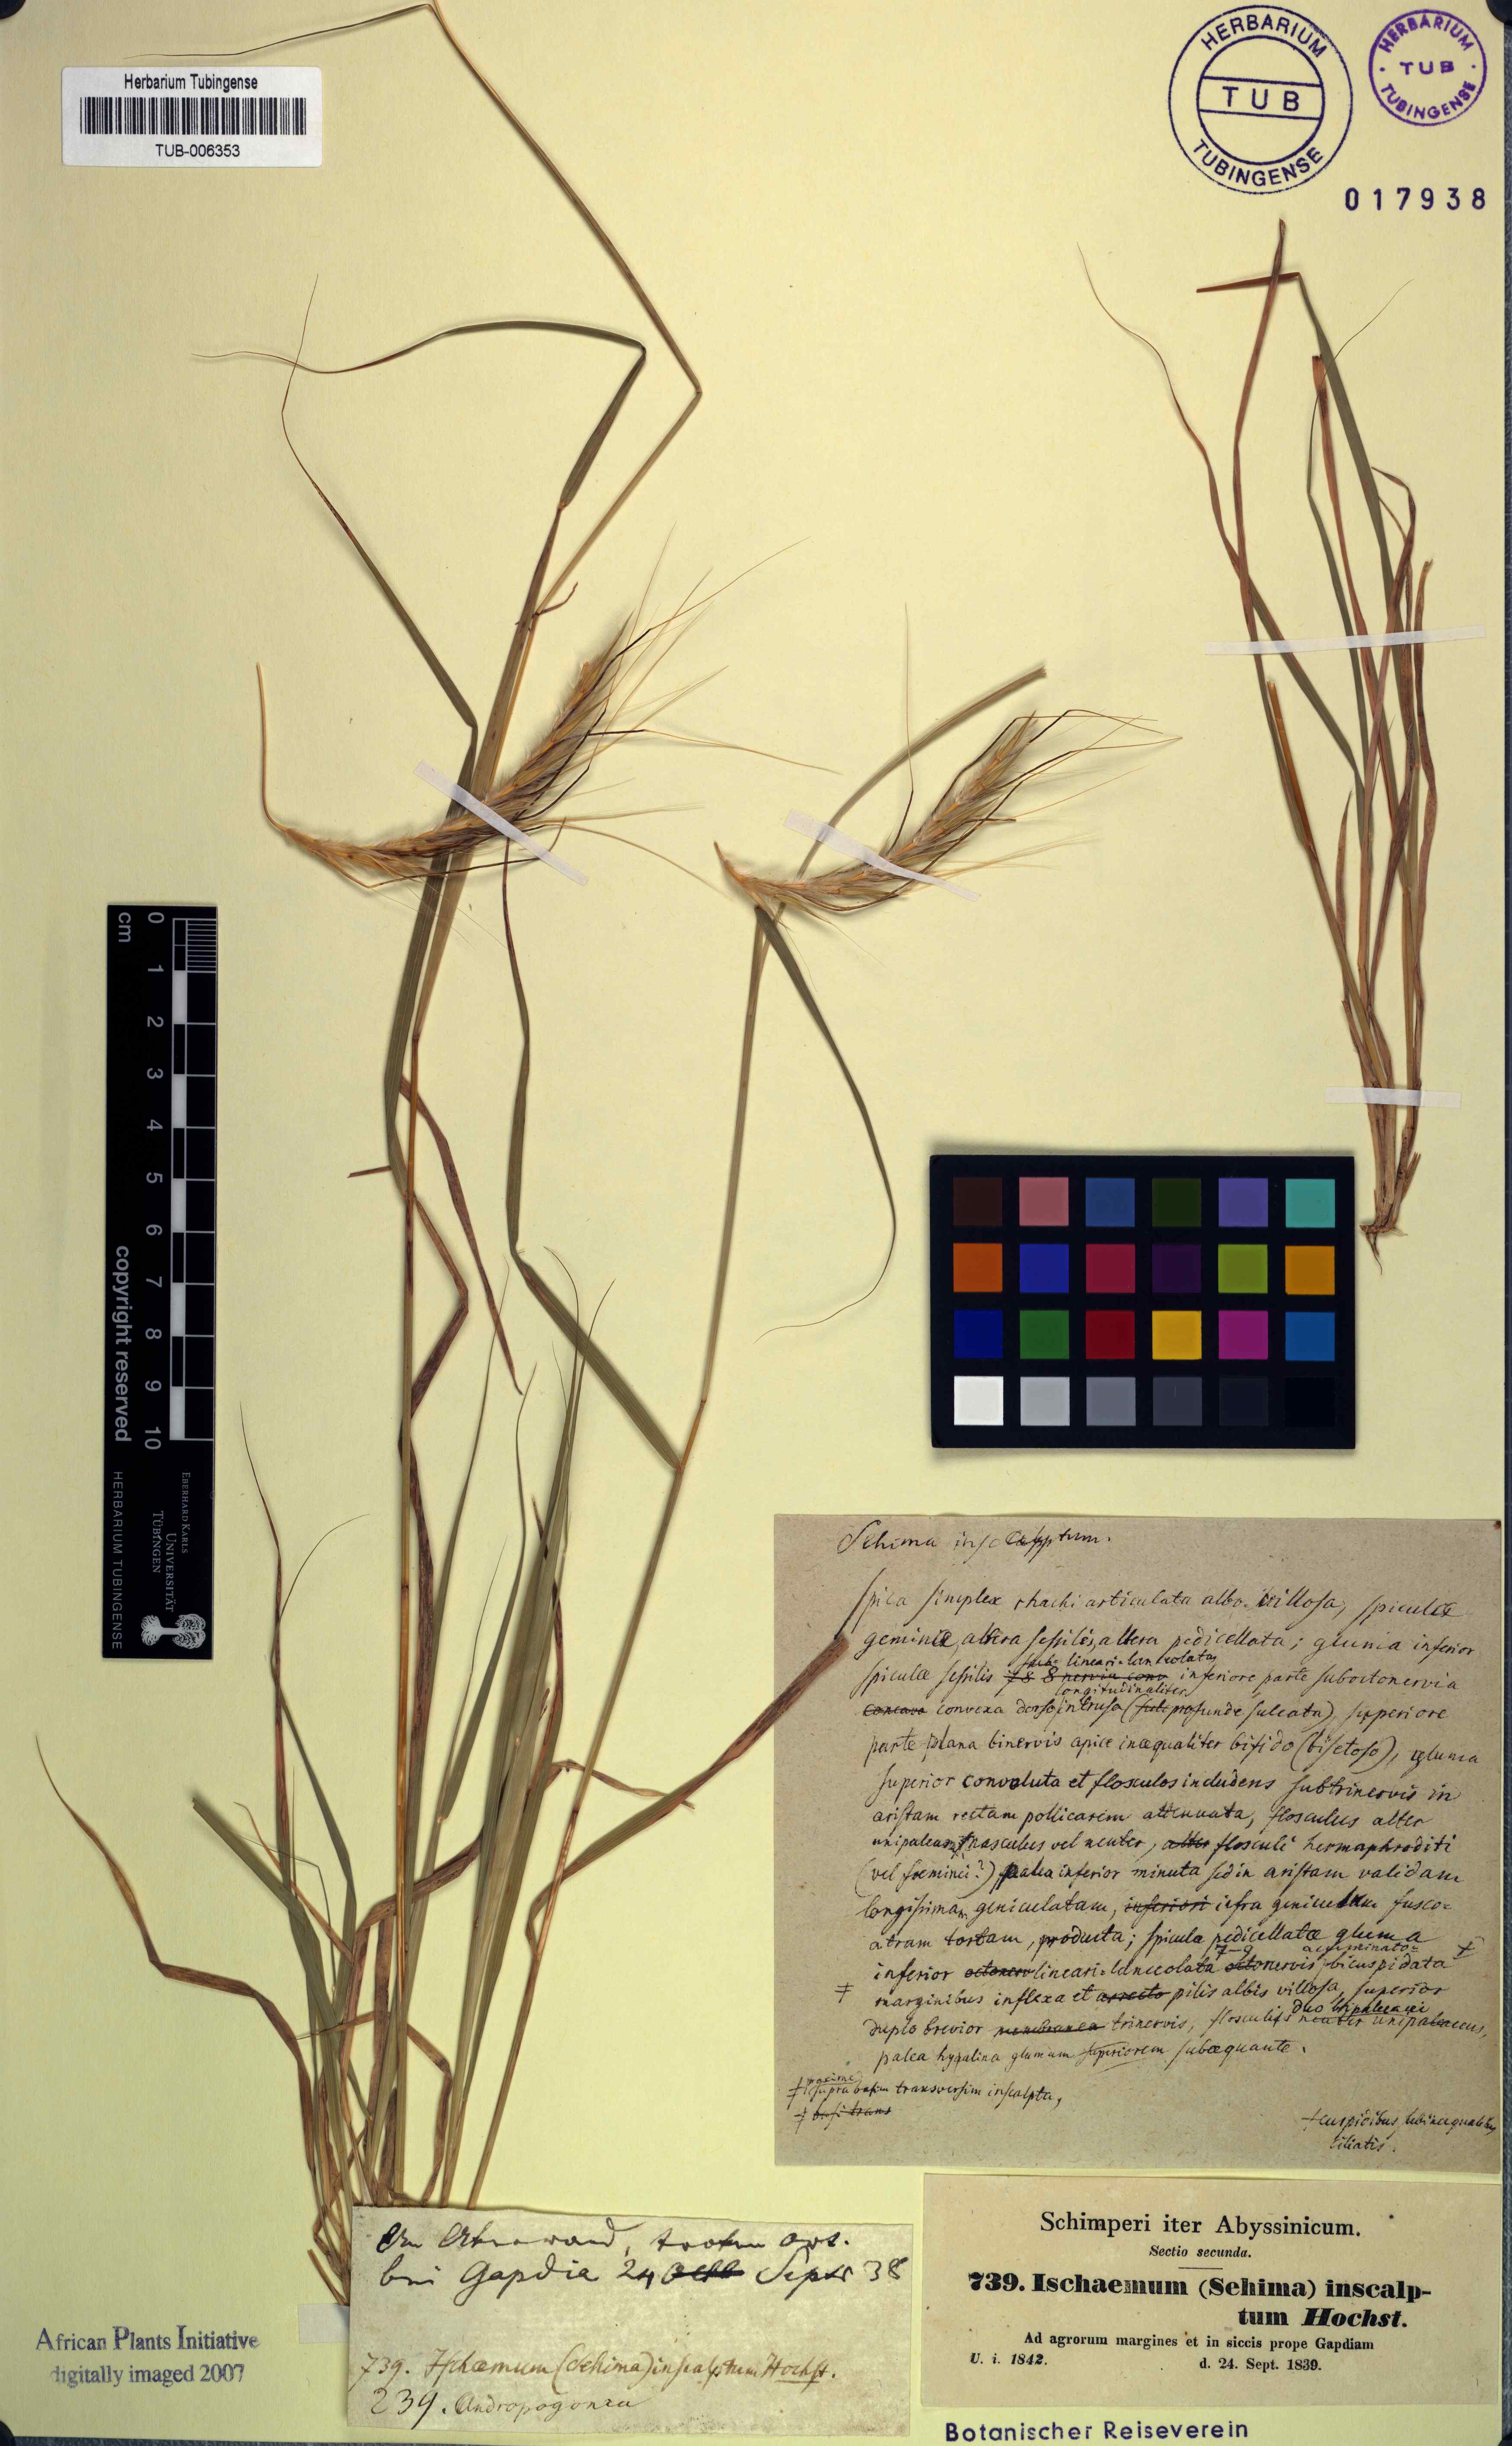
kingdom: Plantae
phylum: Tracheophyta
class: Liliopsida
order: Poales
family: Poaceae
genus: Sehima
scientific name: Sehima nervosa
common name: Rat-tail grass
